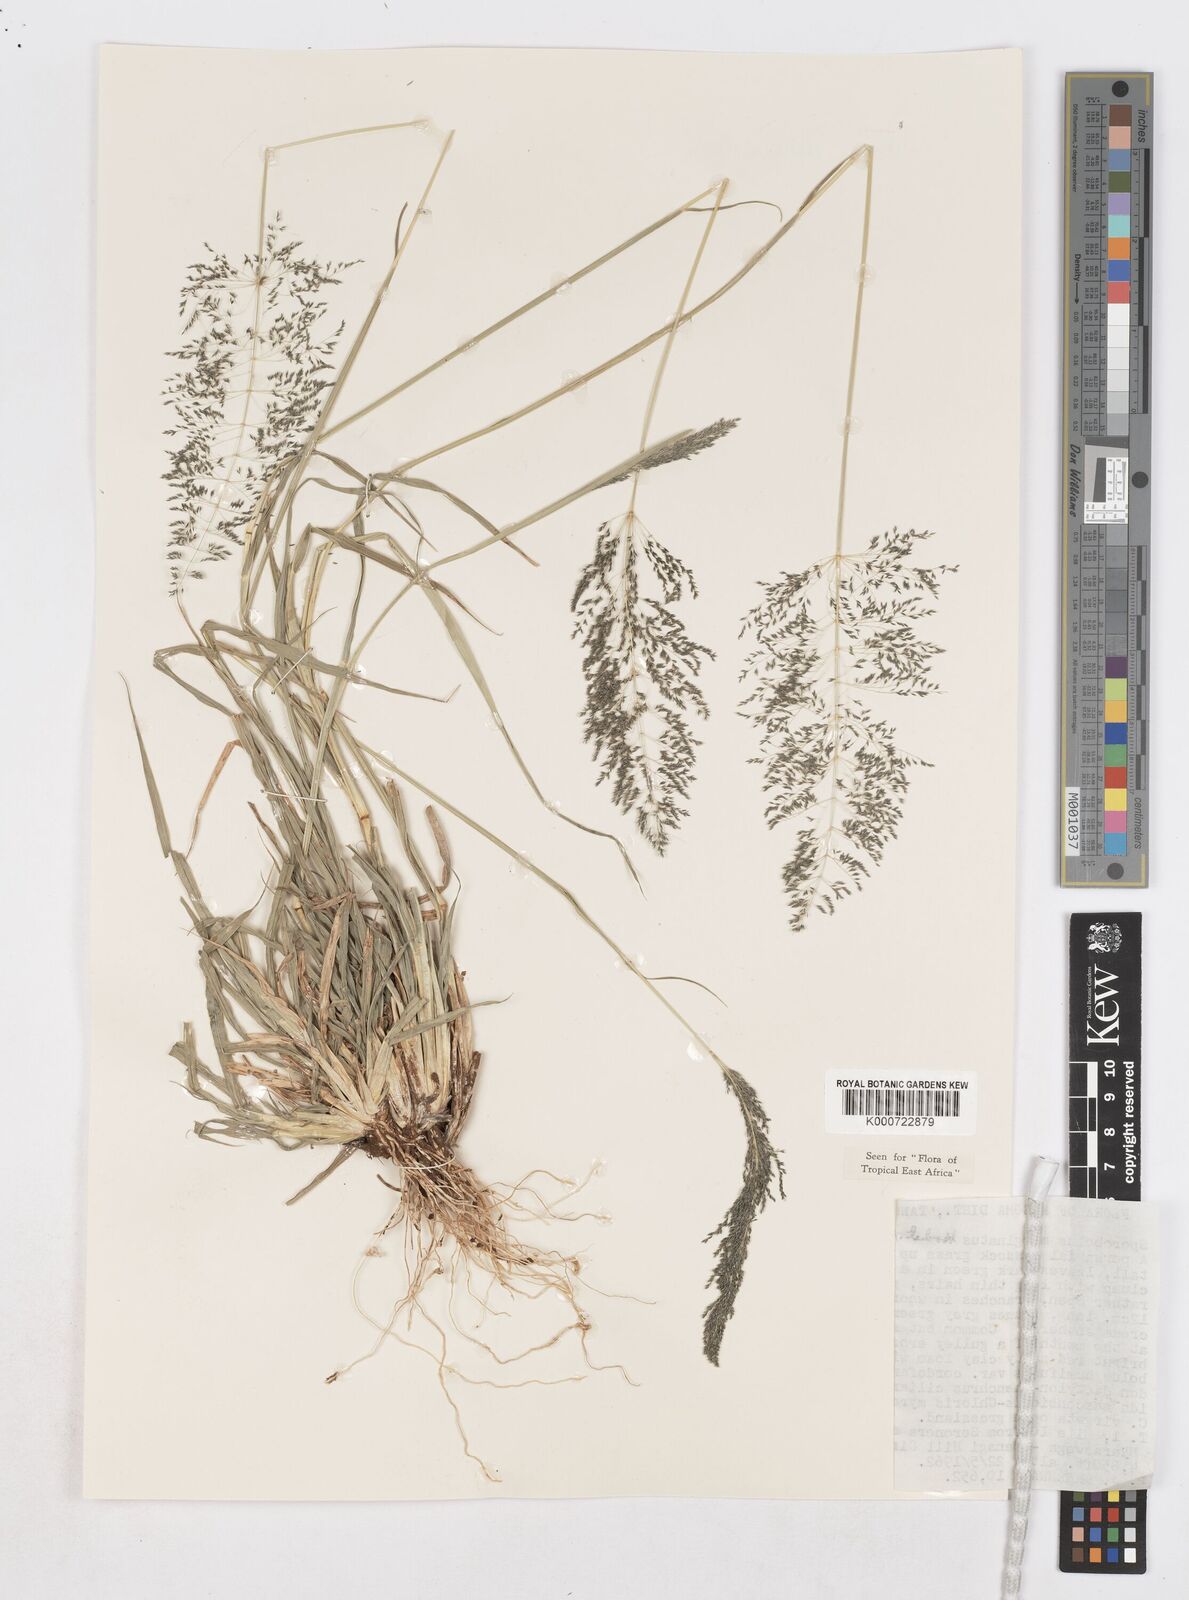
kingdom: Plantae
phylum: Tracheophyta
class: Liliopsida
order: Poales
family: Poaceae
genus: Sporobolus
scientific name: Sporobolus ioclados
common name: Pan dropseed
